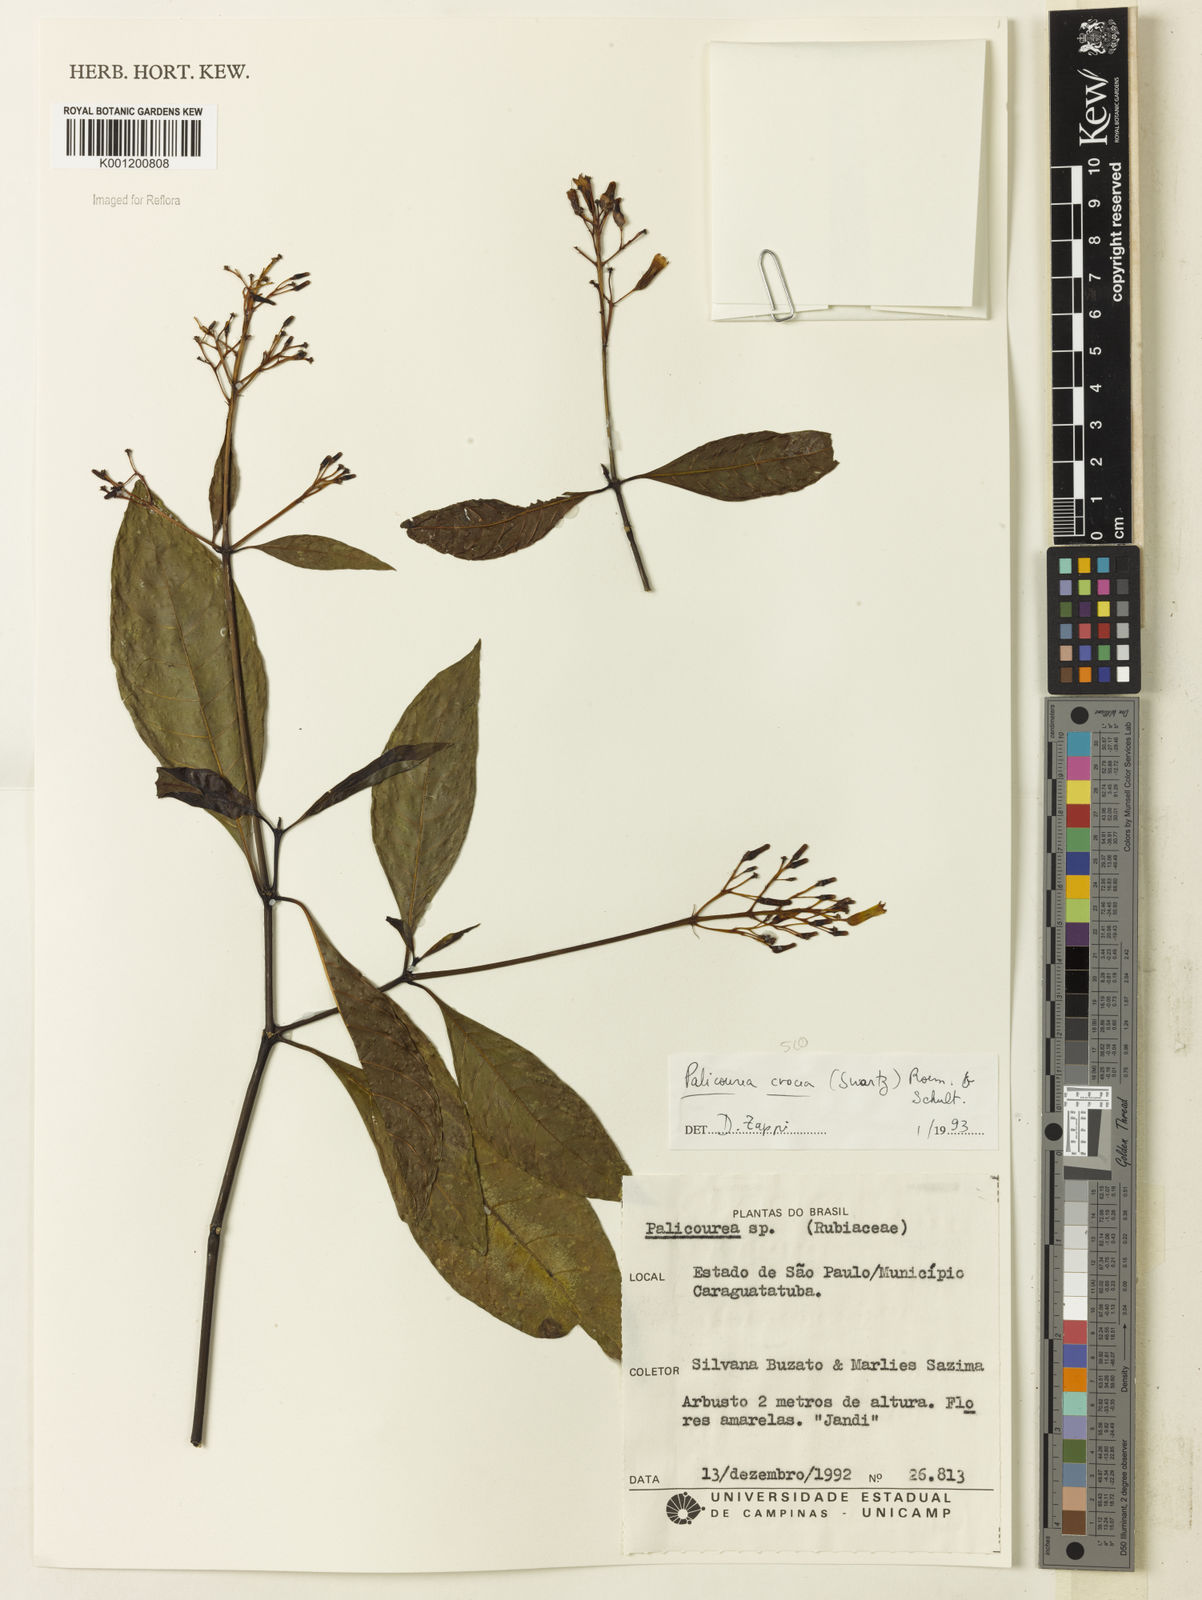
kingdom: Plantae
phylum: Tracheophyta
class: Magnoliopsida
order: Gentianales
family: Rubiaceae
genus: Palicourea
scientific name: Palicourea crocea
